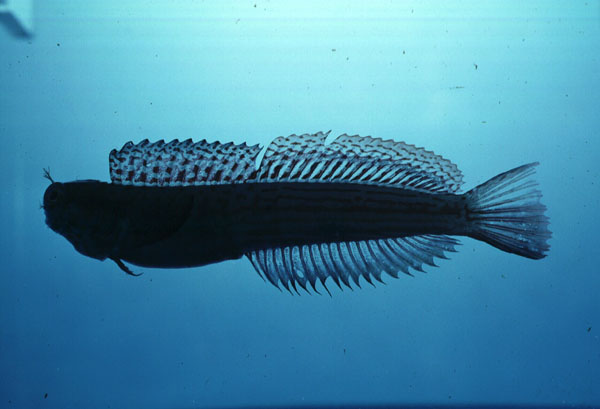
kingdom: Animalia
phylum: Chordata
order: Perciformes
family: Blenniidae
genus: Blenniella
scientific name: Blenniella cyanostigma
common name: Striped rockskipper
